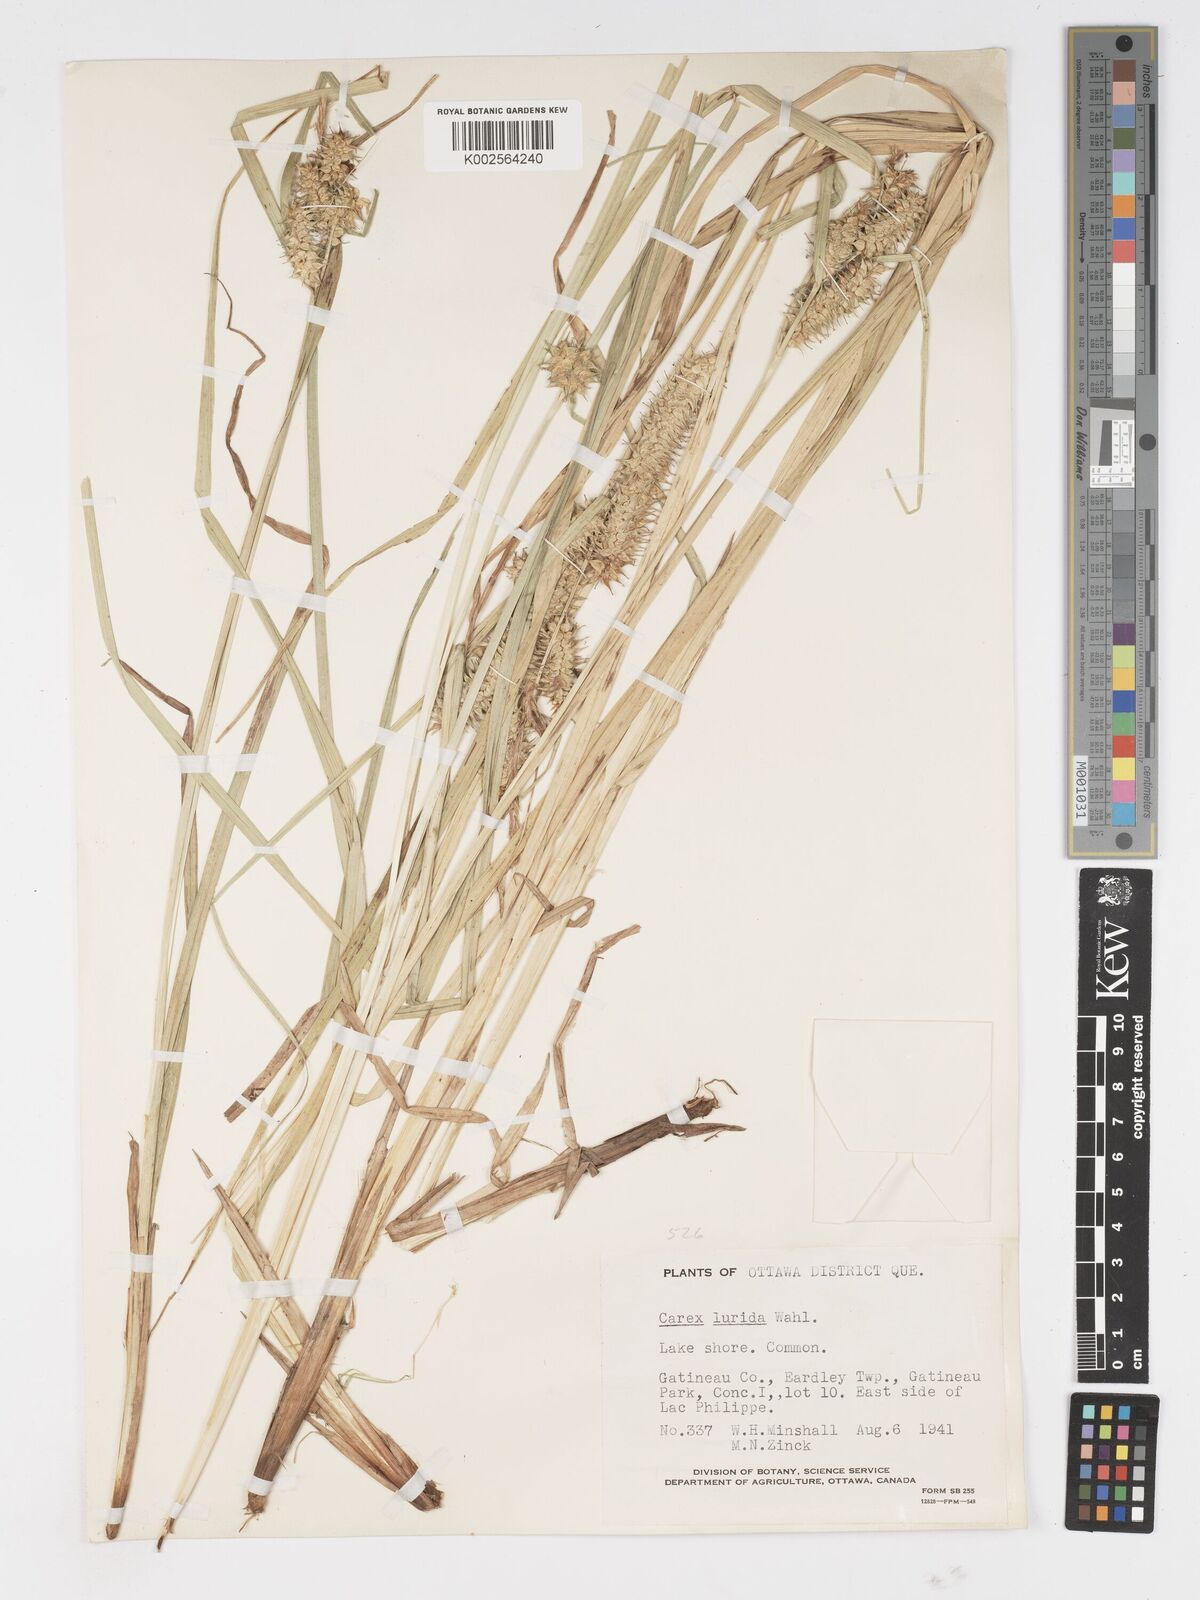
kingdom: Plantae
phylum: Tracheophyta
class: Liliopsida
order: Poales
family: Cyperaceae
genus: Carex
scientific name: Carex lurida
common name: Sallow sedge
